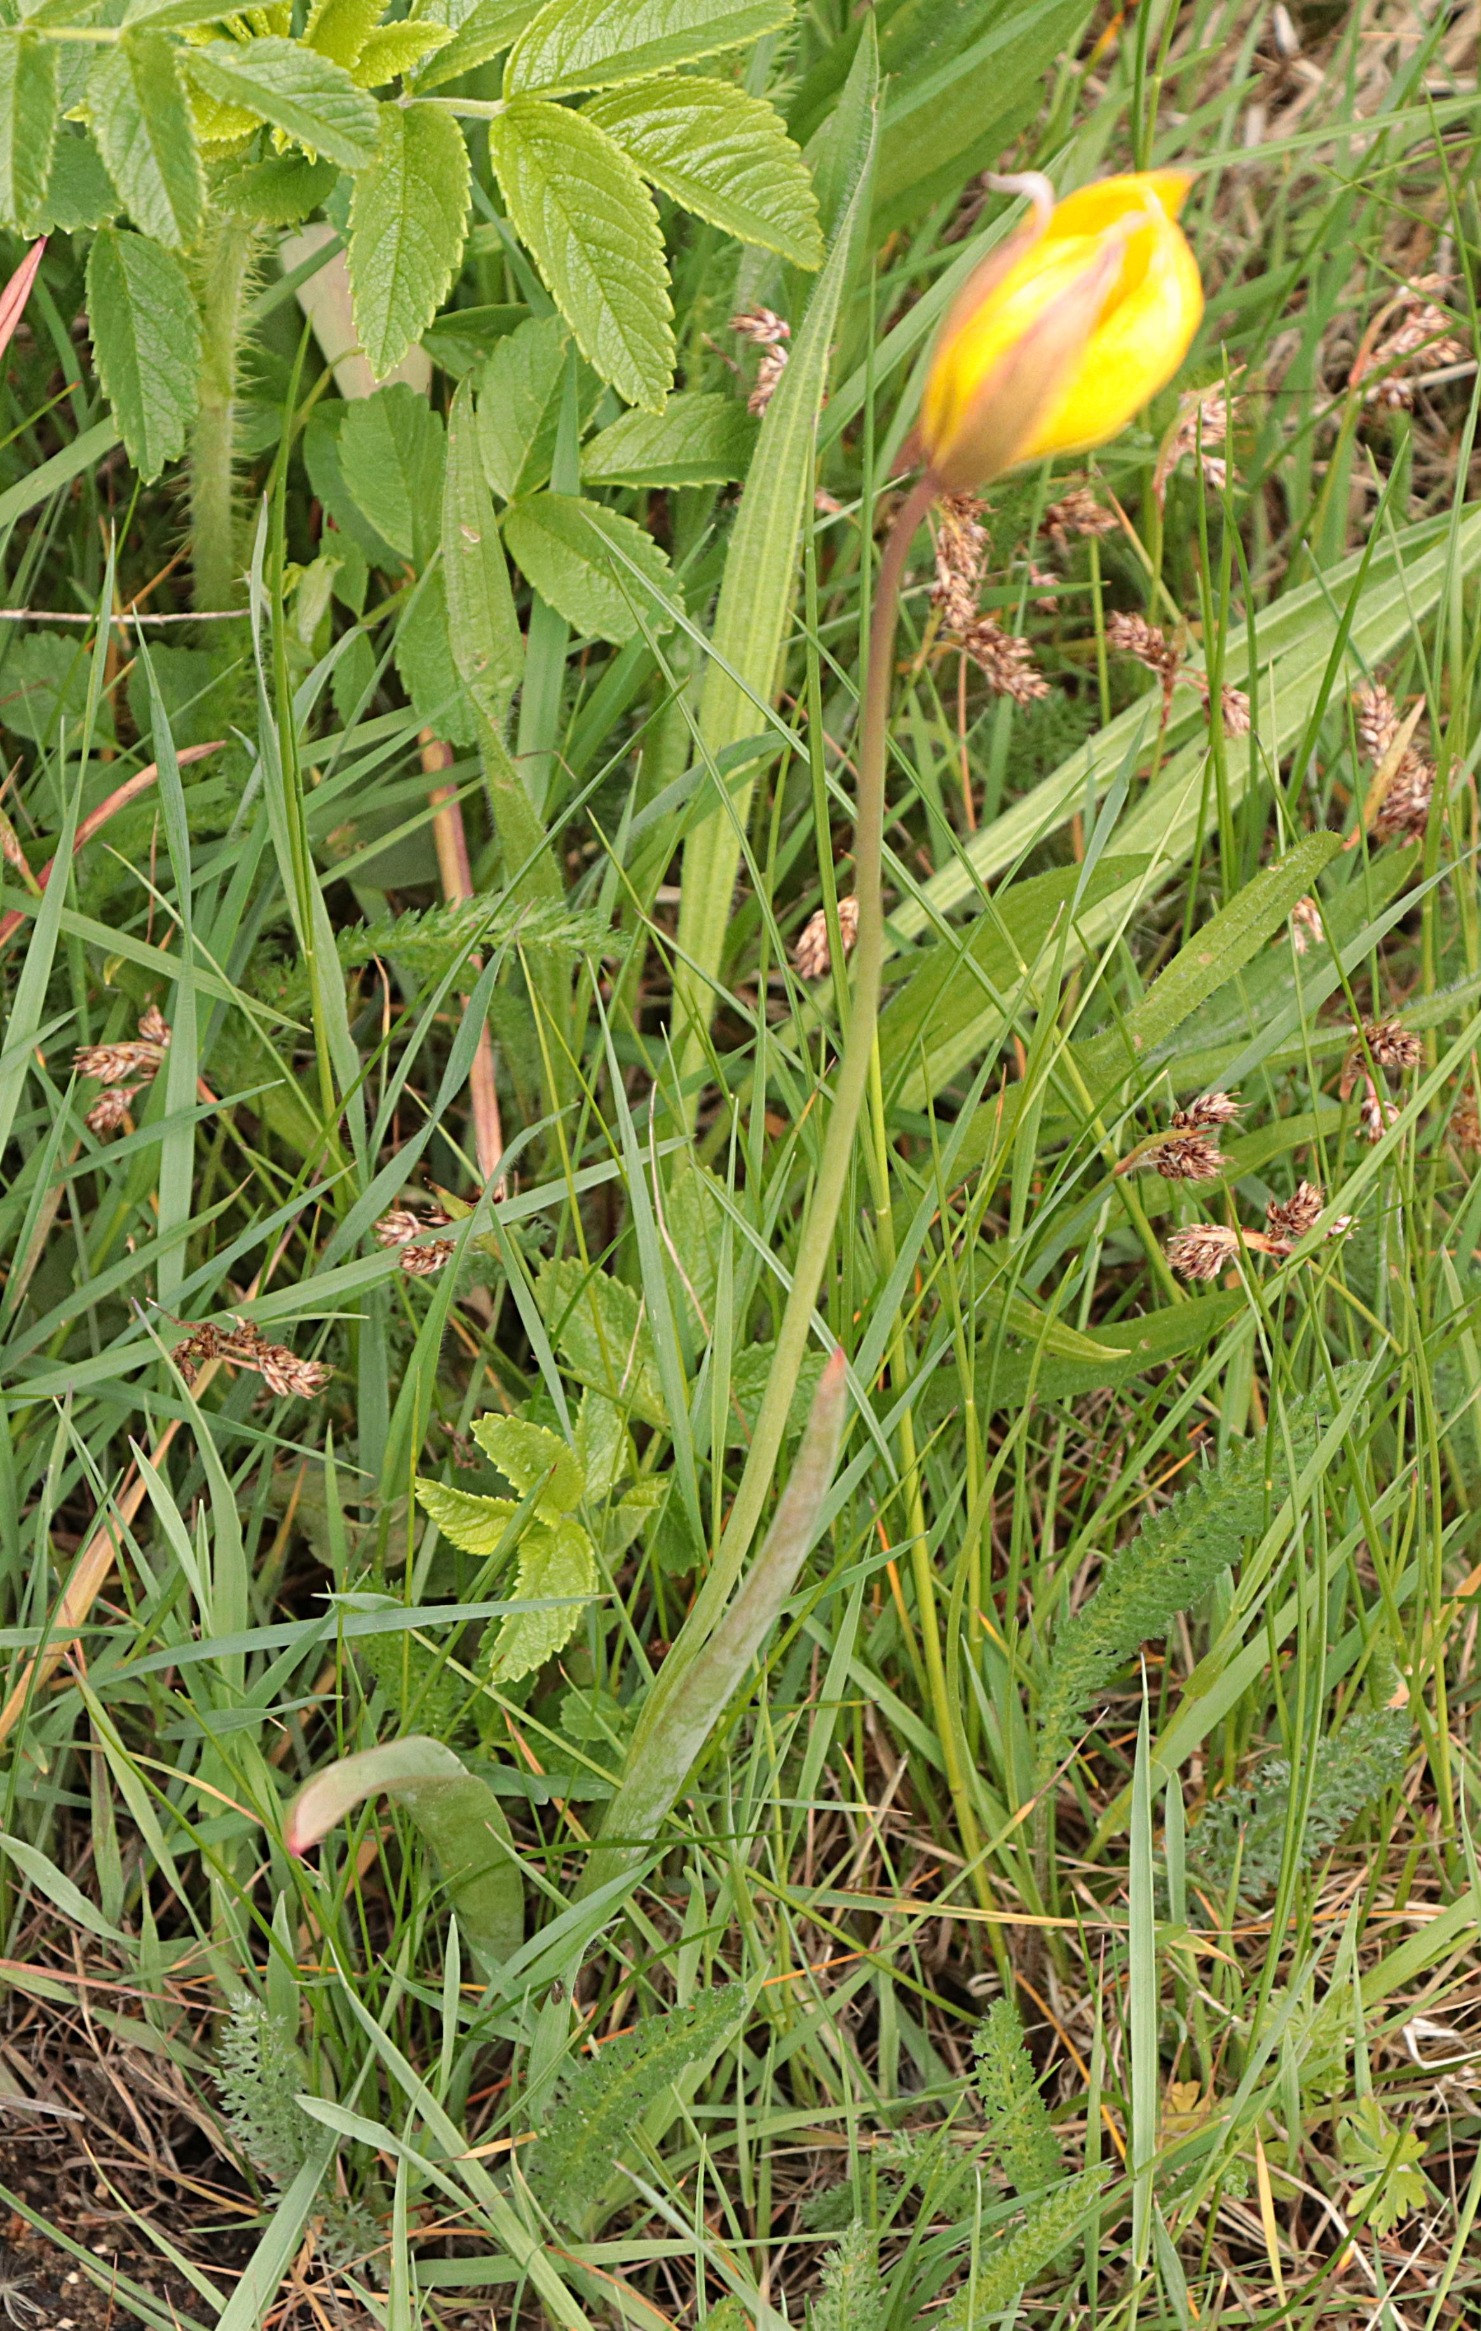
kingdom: Plantae
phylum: Tracheophyta
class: Liliopsida
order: Liliales
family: Liliaceae
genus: Tulipa
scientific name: Tulipa sylvestris
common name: Vild tulipan
